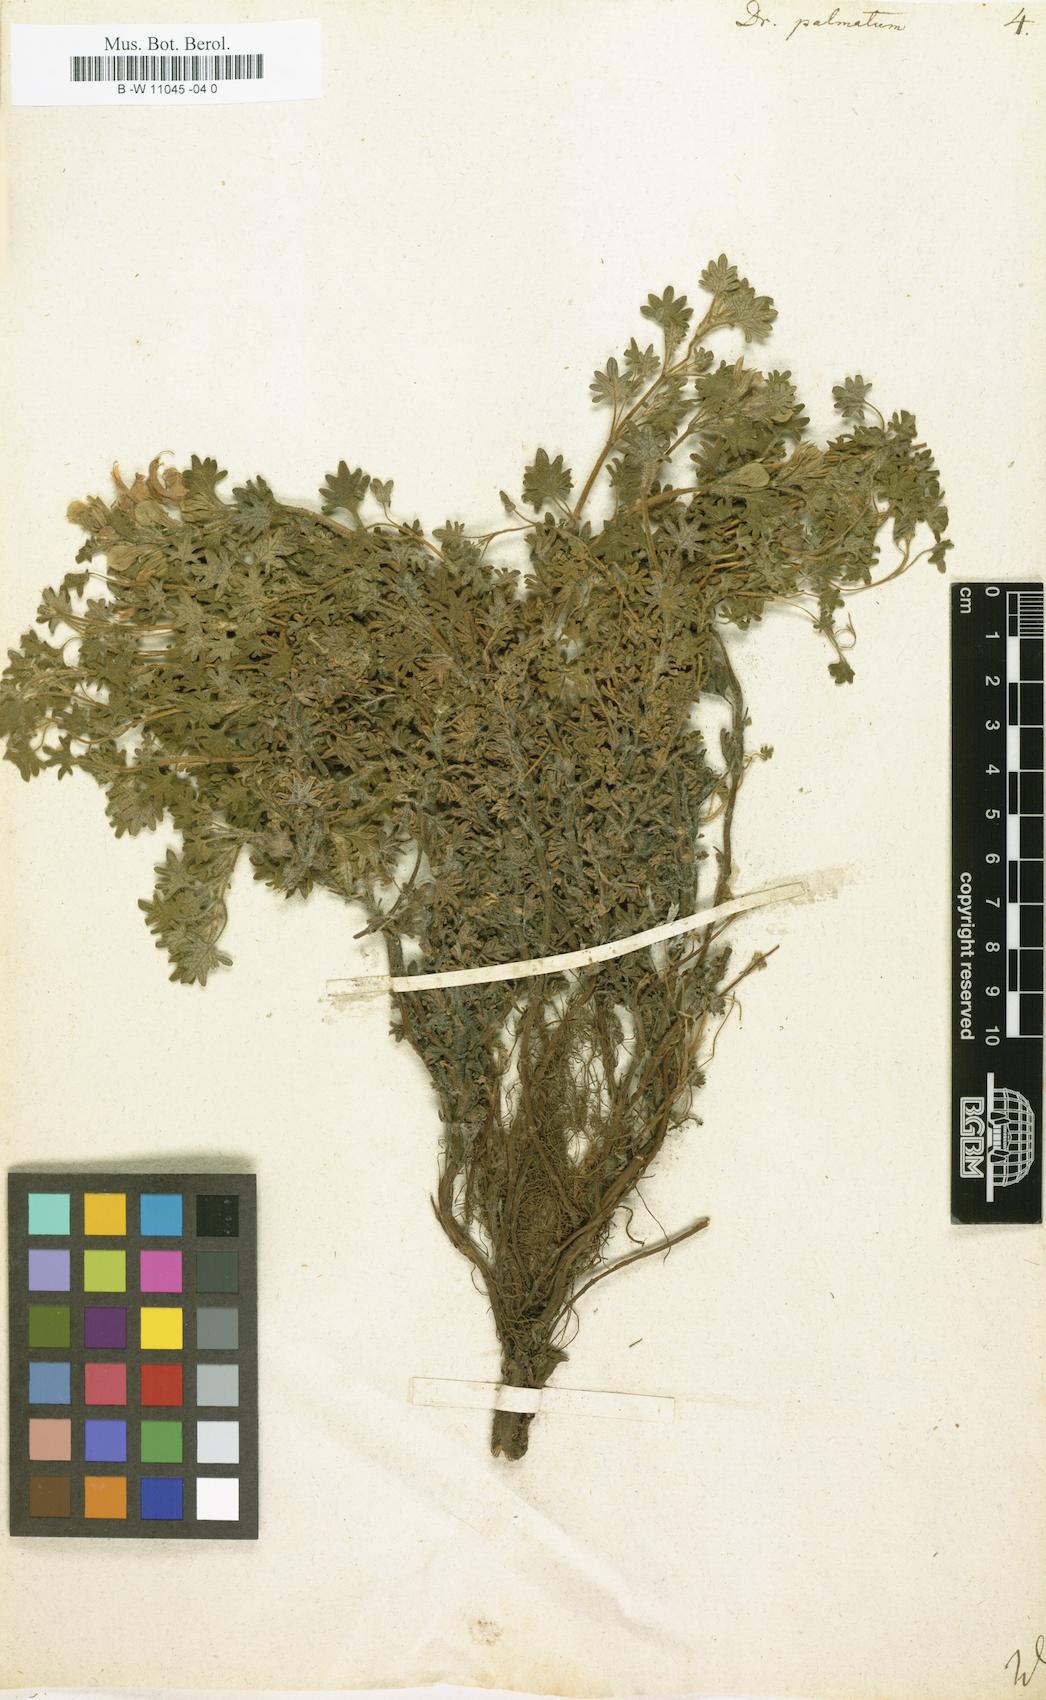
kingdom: Plantae
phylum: Tracheophyta
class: Magnoliopsida
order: Lamiales
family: Lamiaceae
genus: Dracocephalum
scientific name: Dracocephalum palmatum
